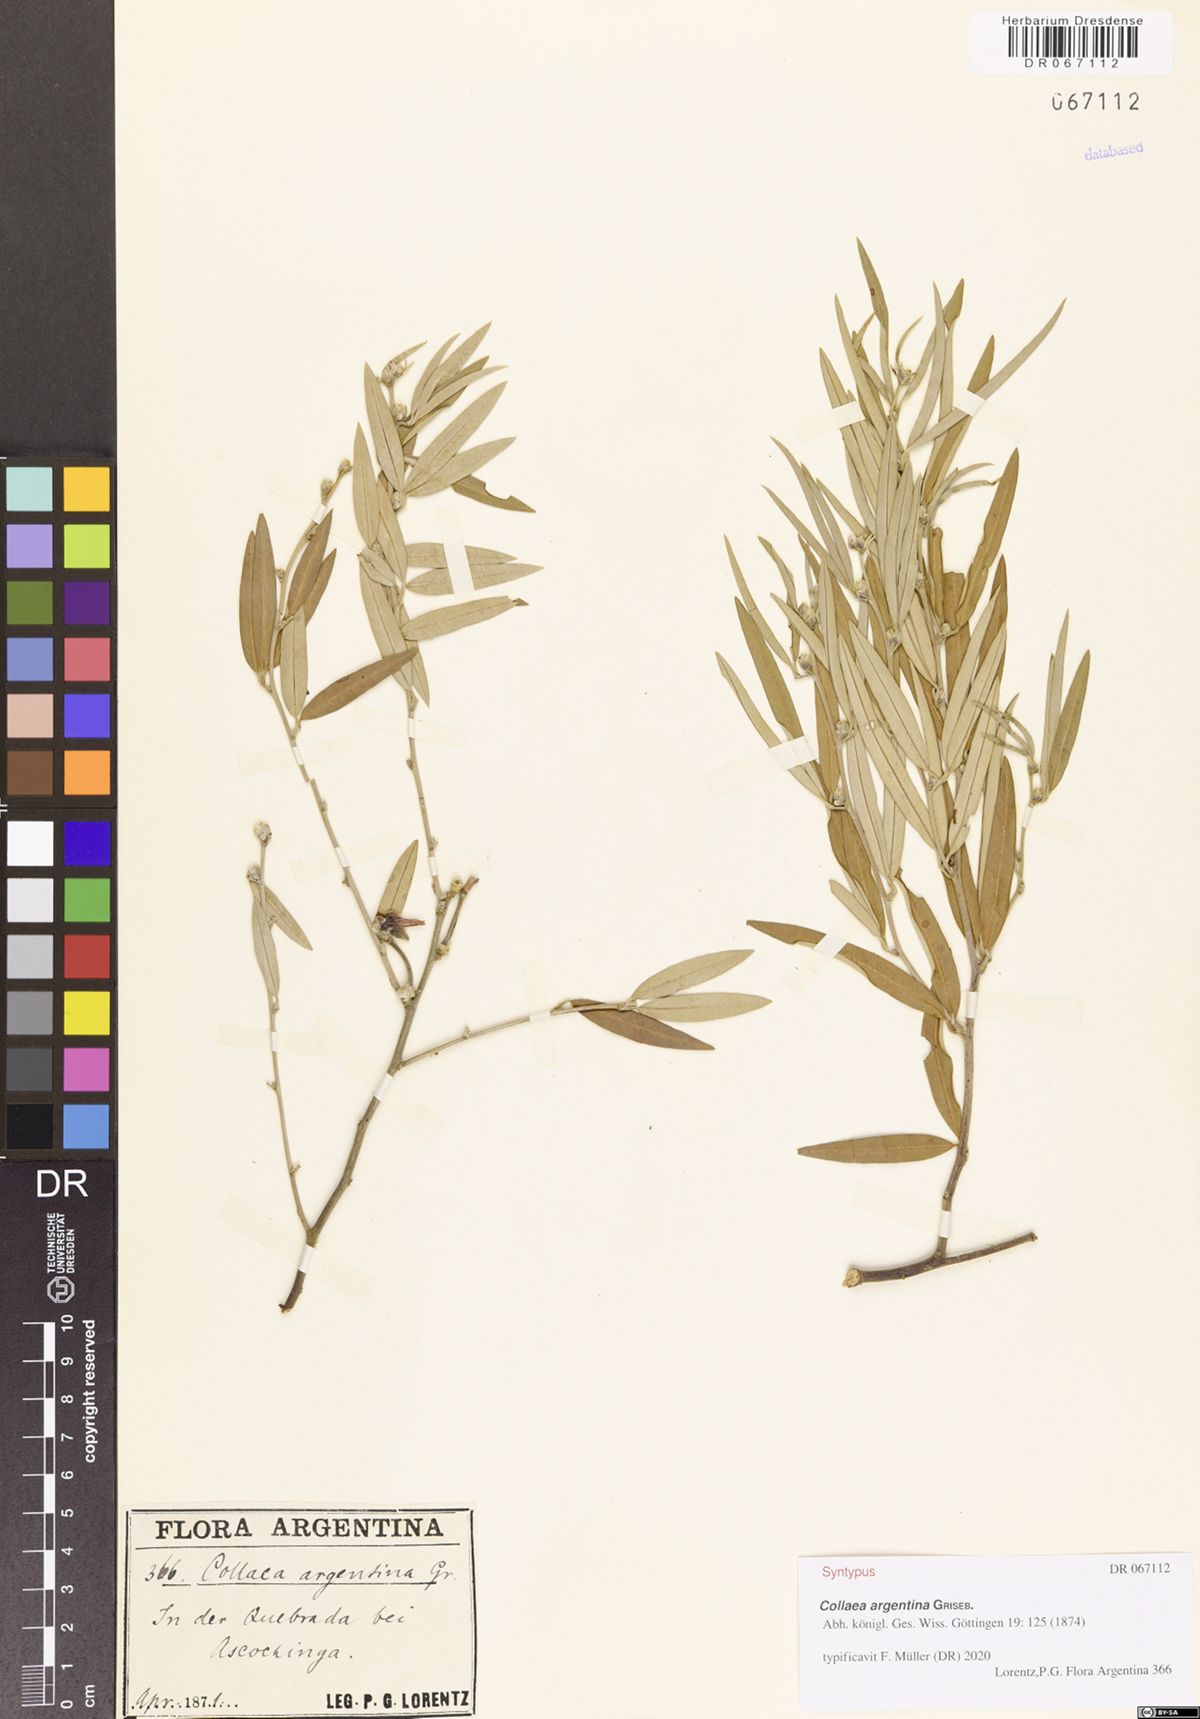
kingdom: Plantae
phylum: Tracheophyta
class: Magnoliopsida
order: Fabales
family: Fabaceae
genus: Nanogalactia
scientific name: Nanogalactia heterophylla
